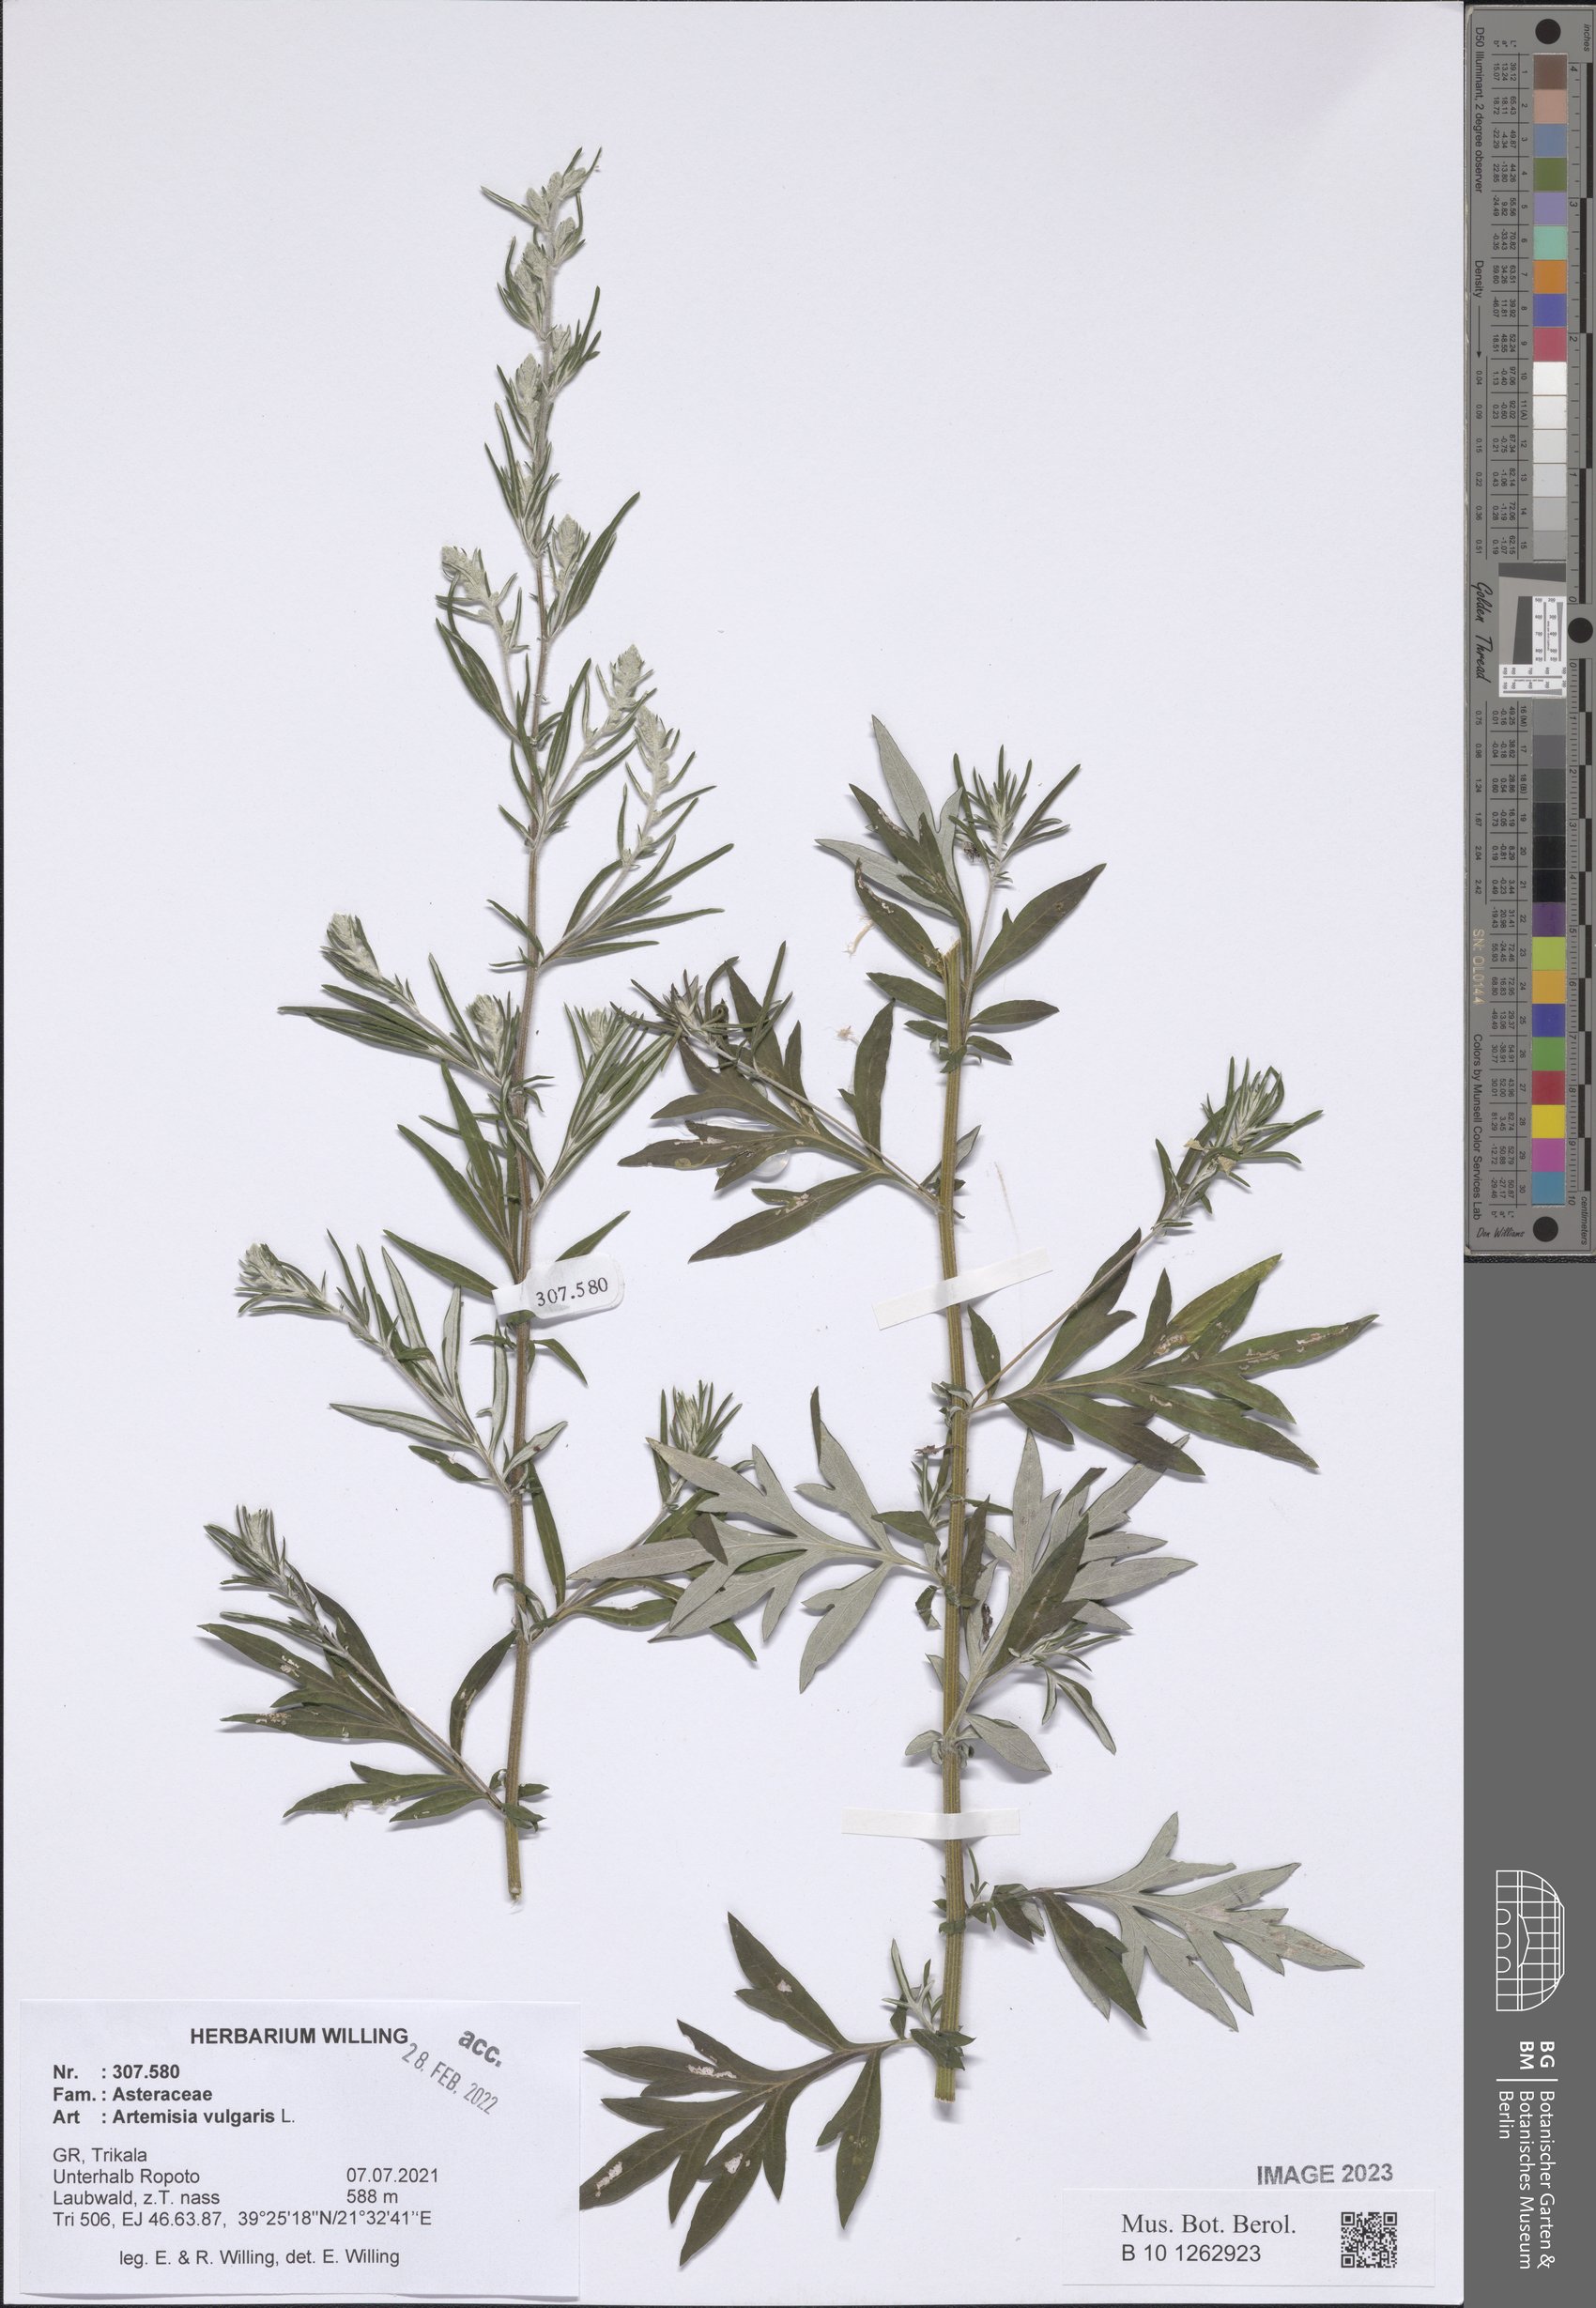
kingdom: Plantae
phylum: Tracheophyta
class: Magnoliopsida
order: Asterales
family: Asteraceae
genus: Artemisia
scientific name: Artemisia vulgaris
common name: Mugwort
